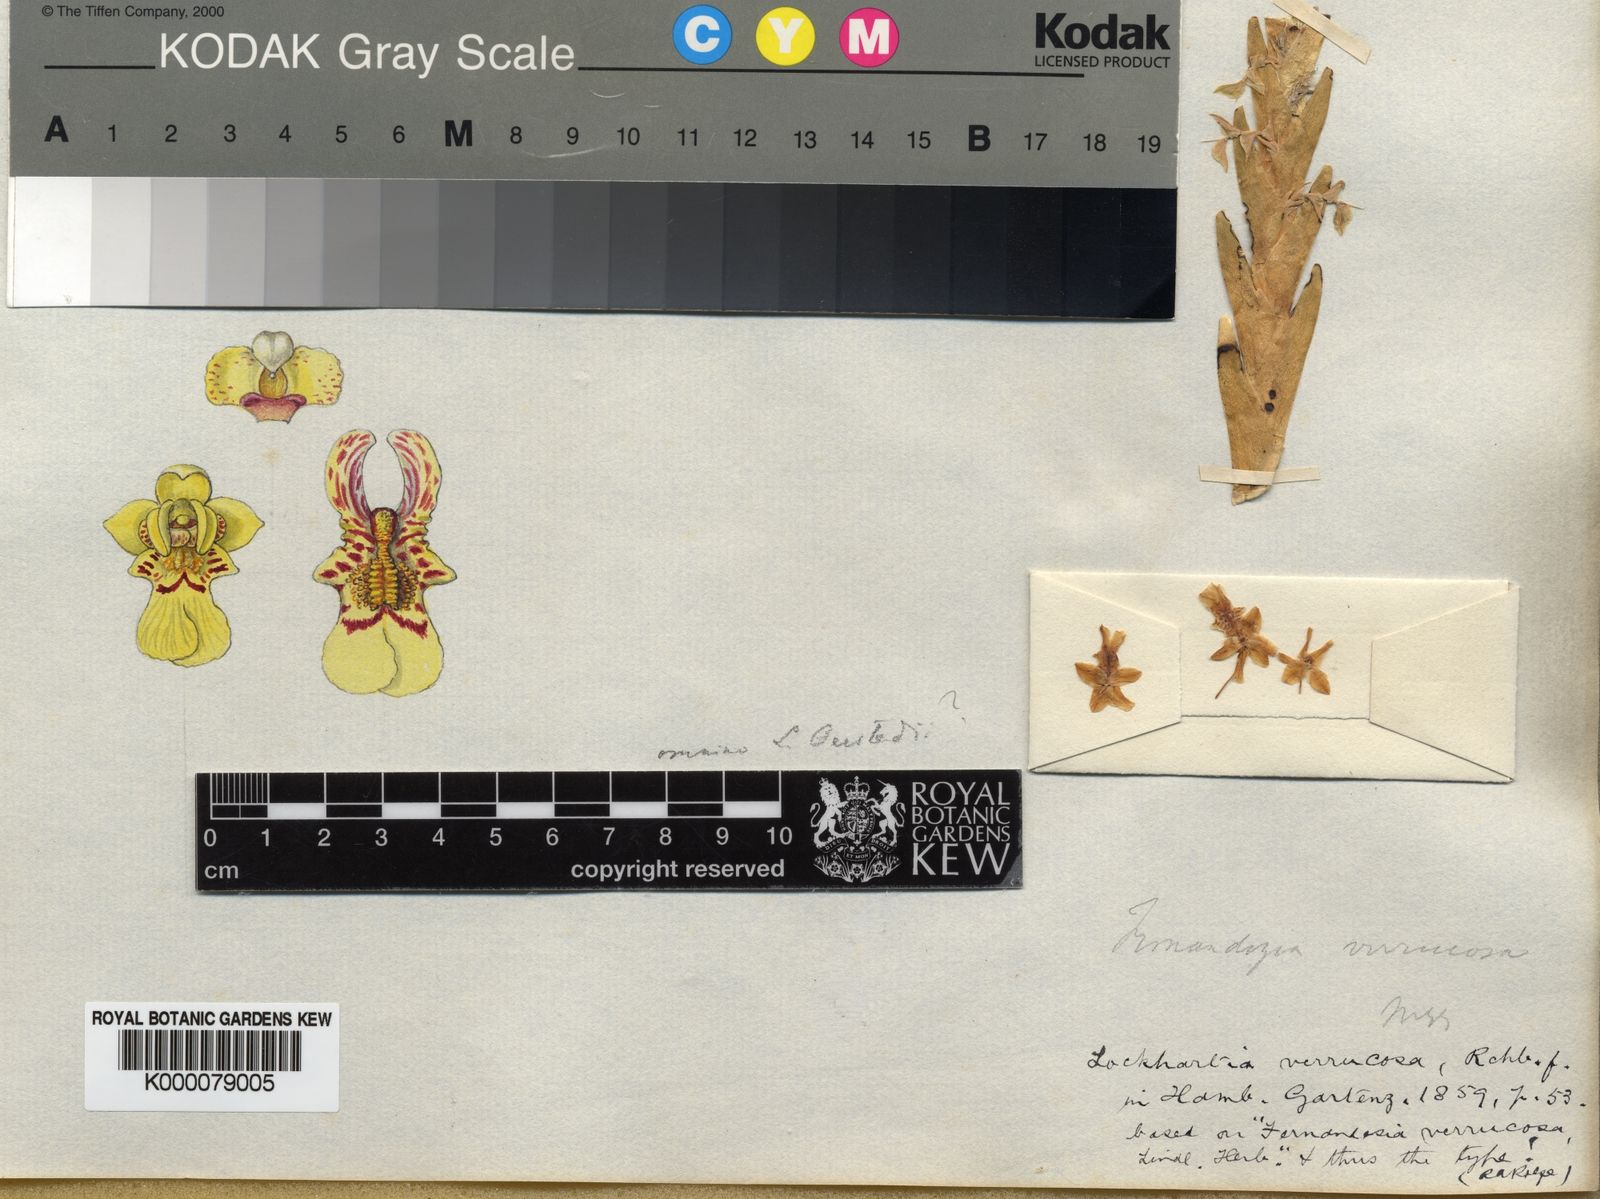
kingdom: Plantae
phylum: Tracheophyta
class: Liliopsida
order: Asparagales
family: Orchidaceae
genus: Lockhartia
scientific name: Lockhartia oerstedii
